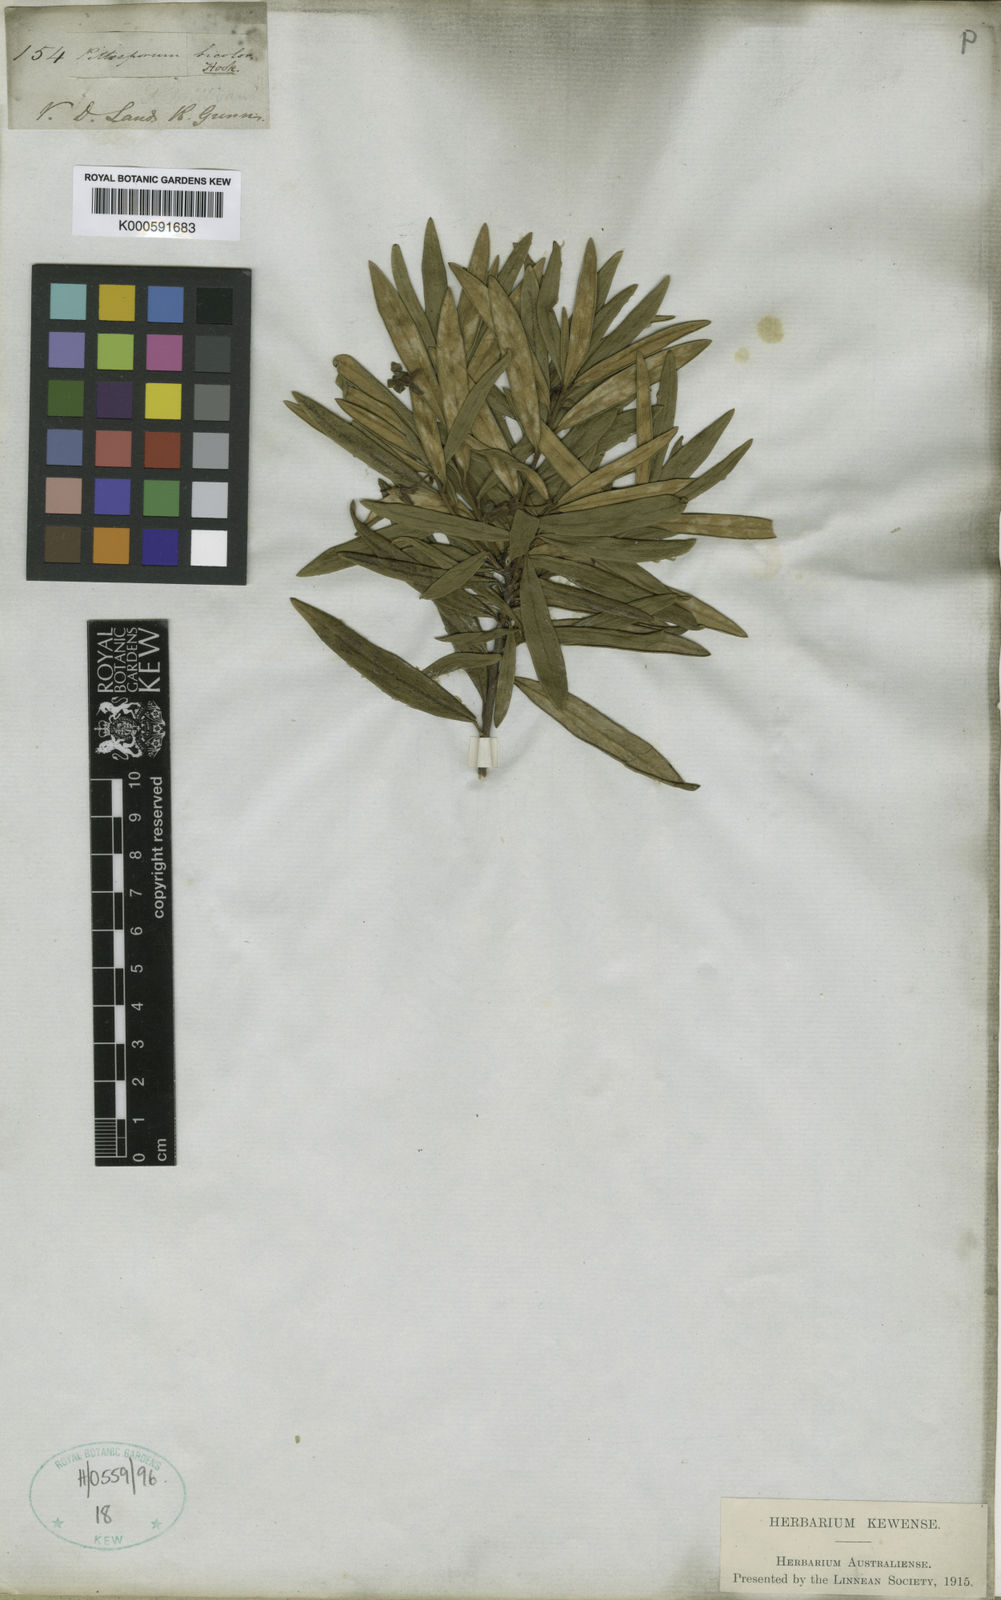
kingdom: Plantae
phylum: Tracheophyta
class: Magnoliopsida
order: Apiales
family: Pittosporaceae
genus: Pittosporum
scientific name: Pittosporum bicolor
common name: Tallowwood
